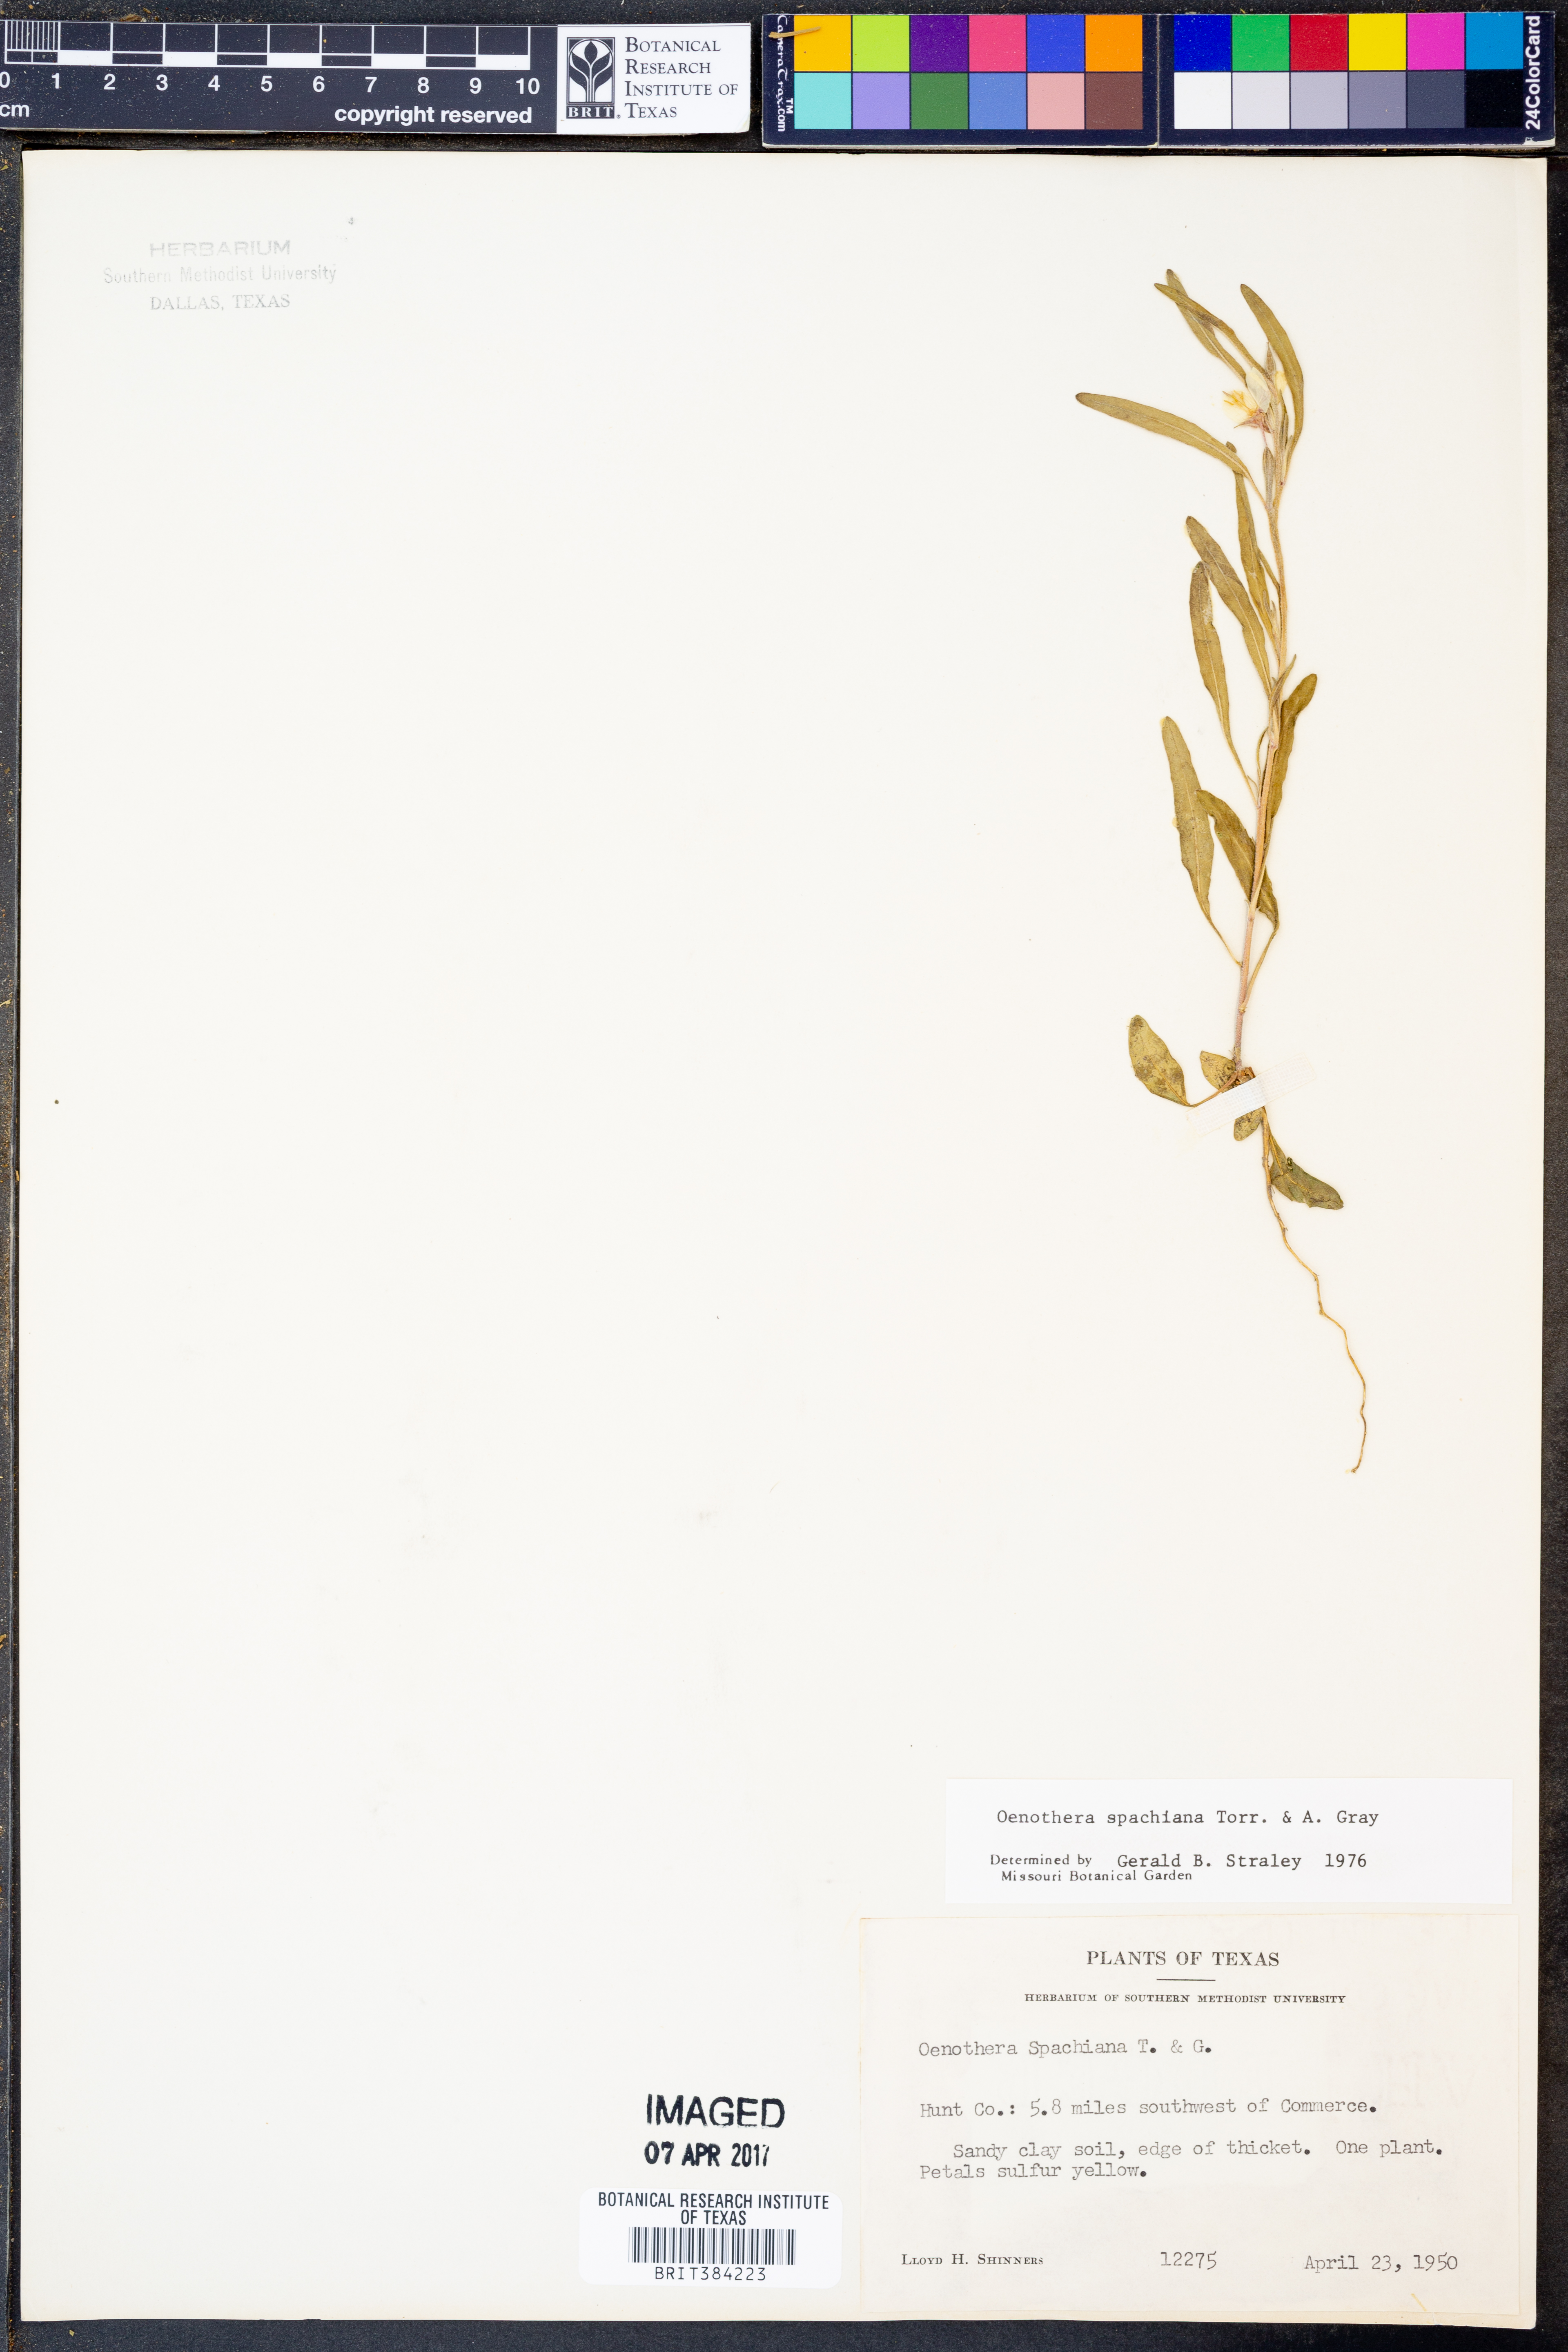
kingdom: Plantae
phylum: Tracheophyta
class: Magnoliopsida
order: Myrtales
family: Onagraceae
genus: Oenothera
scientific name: Oenothera spachiana
